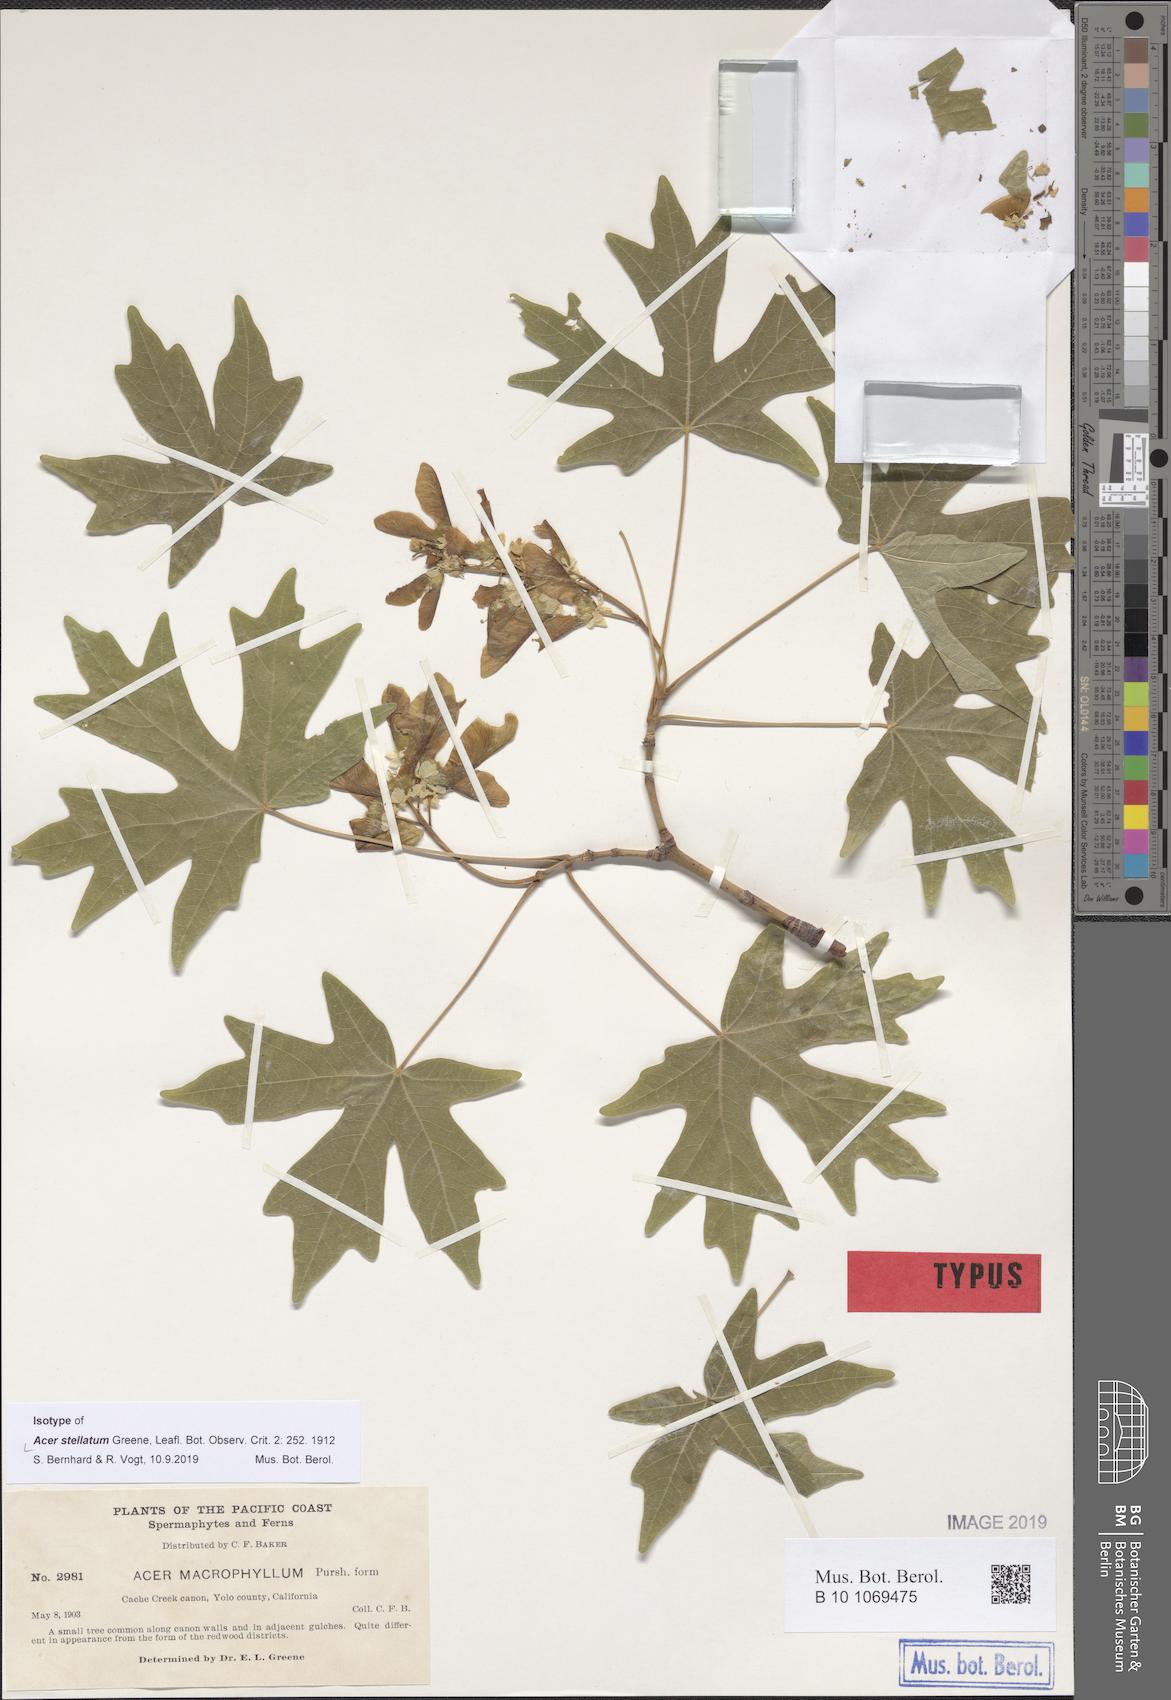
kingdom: Plantae
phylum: Tracheophyta
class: Magnoliopsida
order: Sapindales
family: Sapindaceae
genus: Acer
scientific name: Acer macrophyllum
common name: Oregon maple
